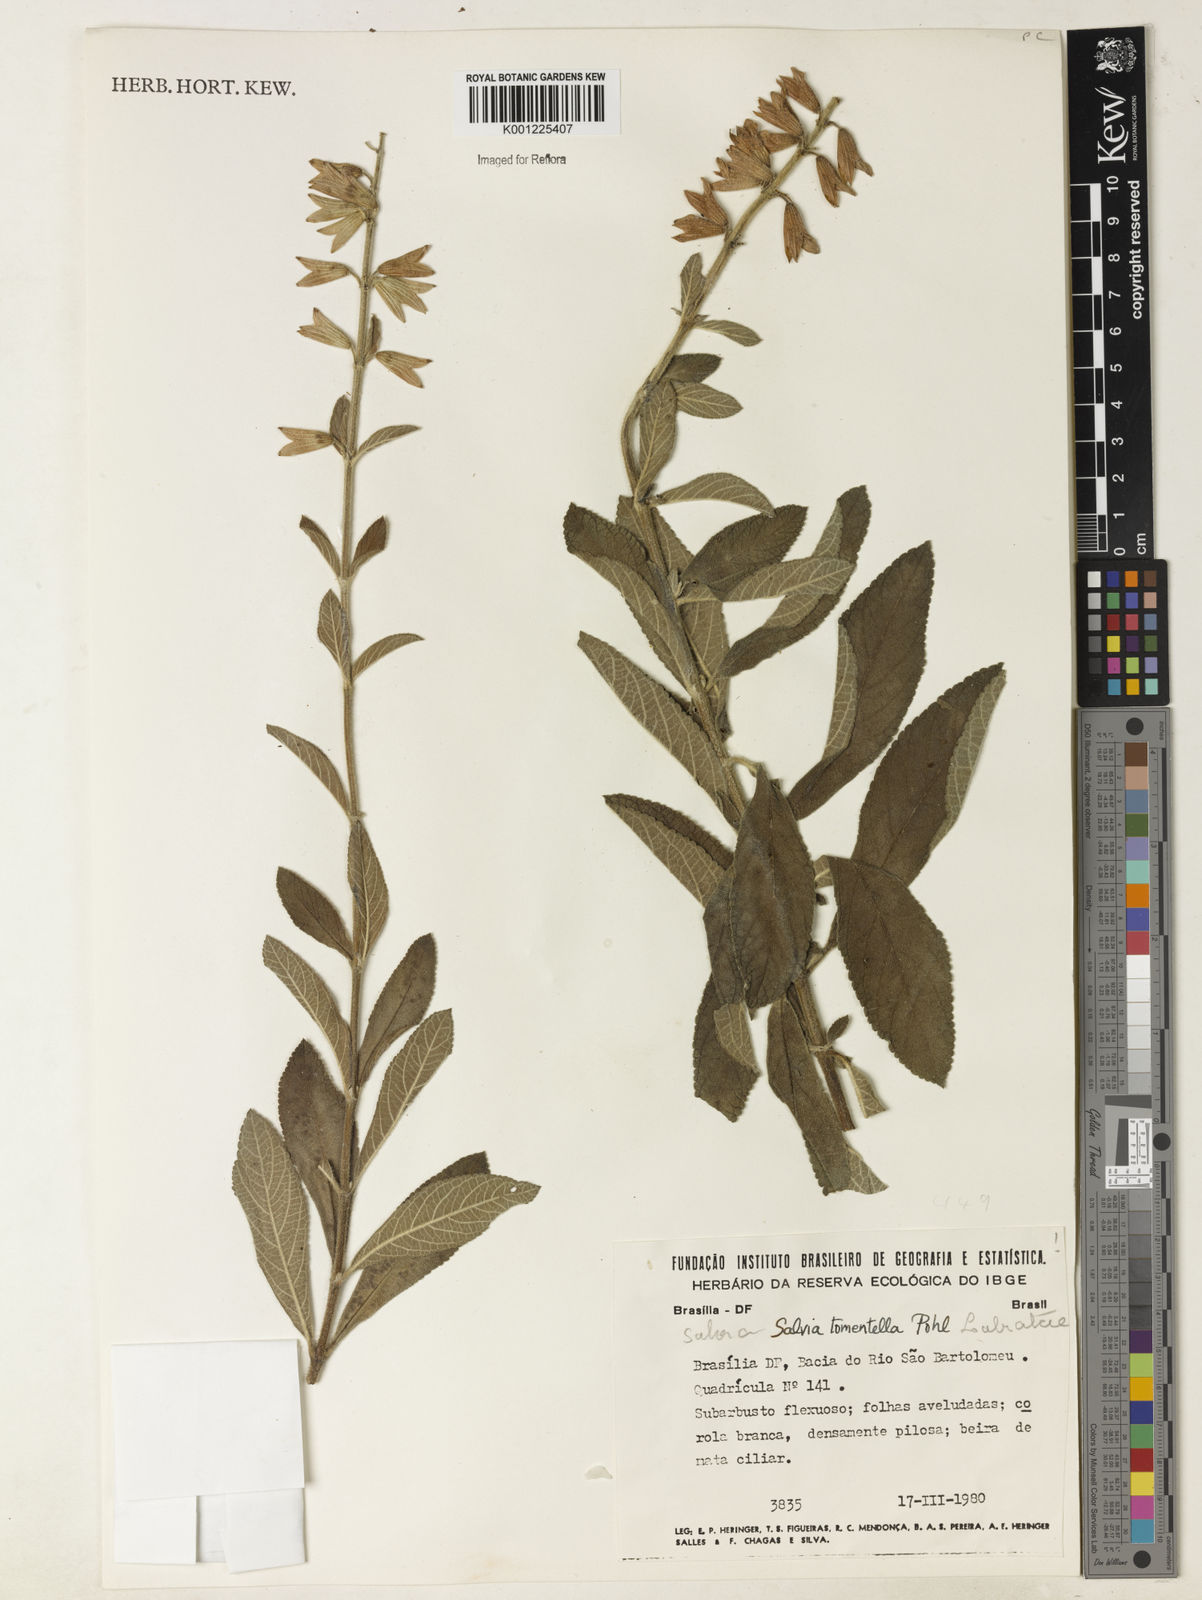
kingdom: Plantae
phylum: Tracheophyta
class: Magnoliopsida
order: Lamiales
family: Lamiaceae
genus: Salvia
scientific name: Salvia tomentella
